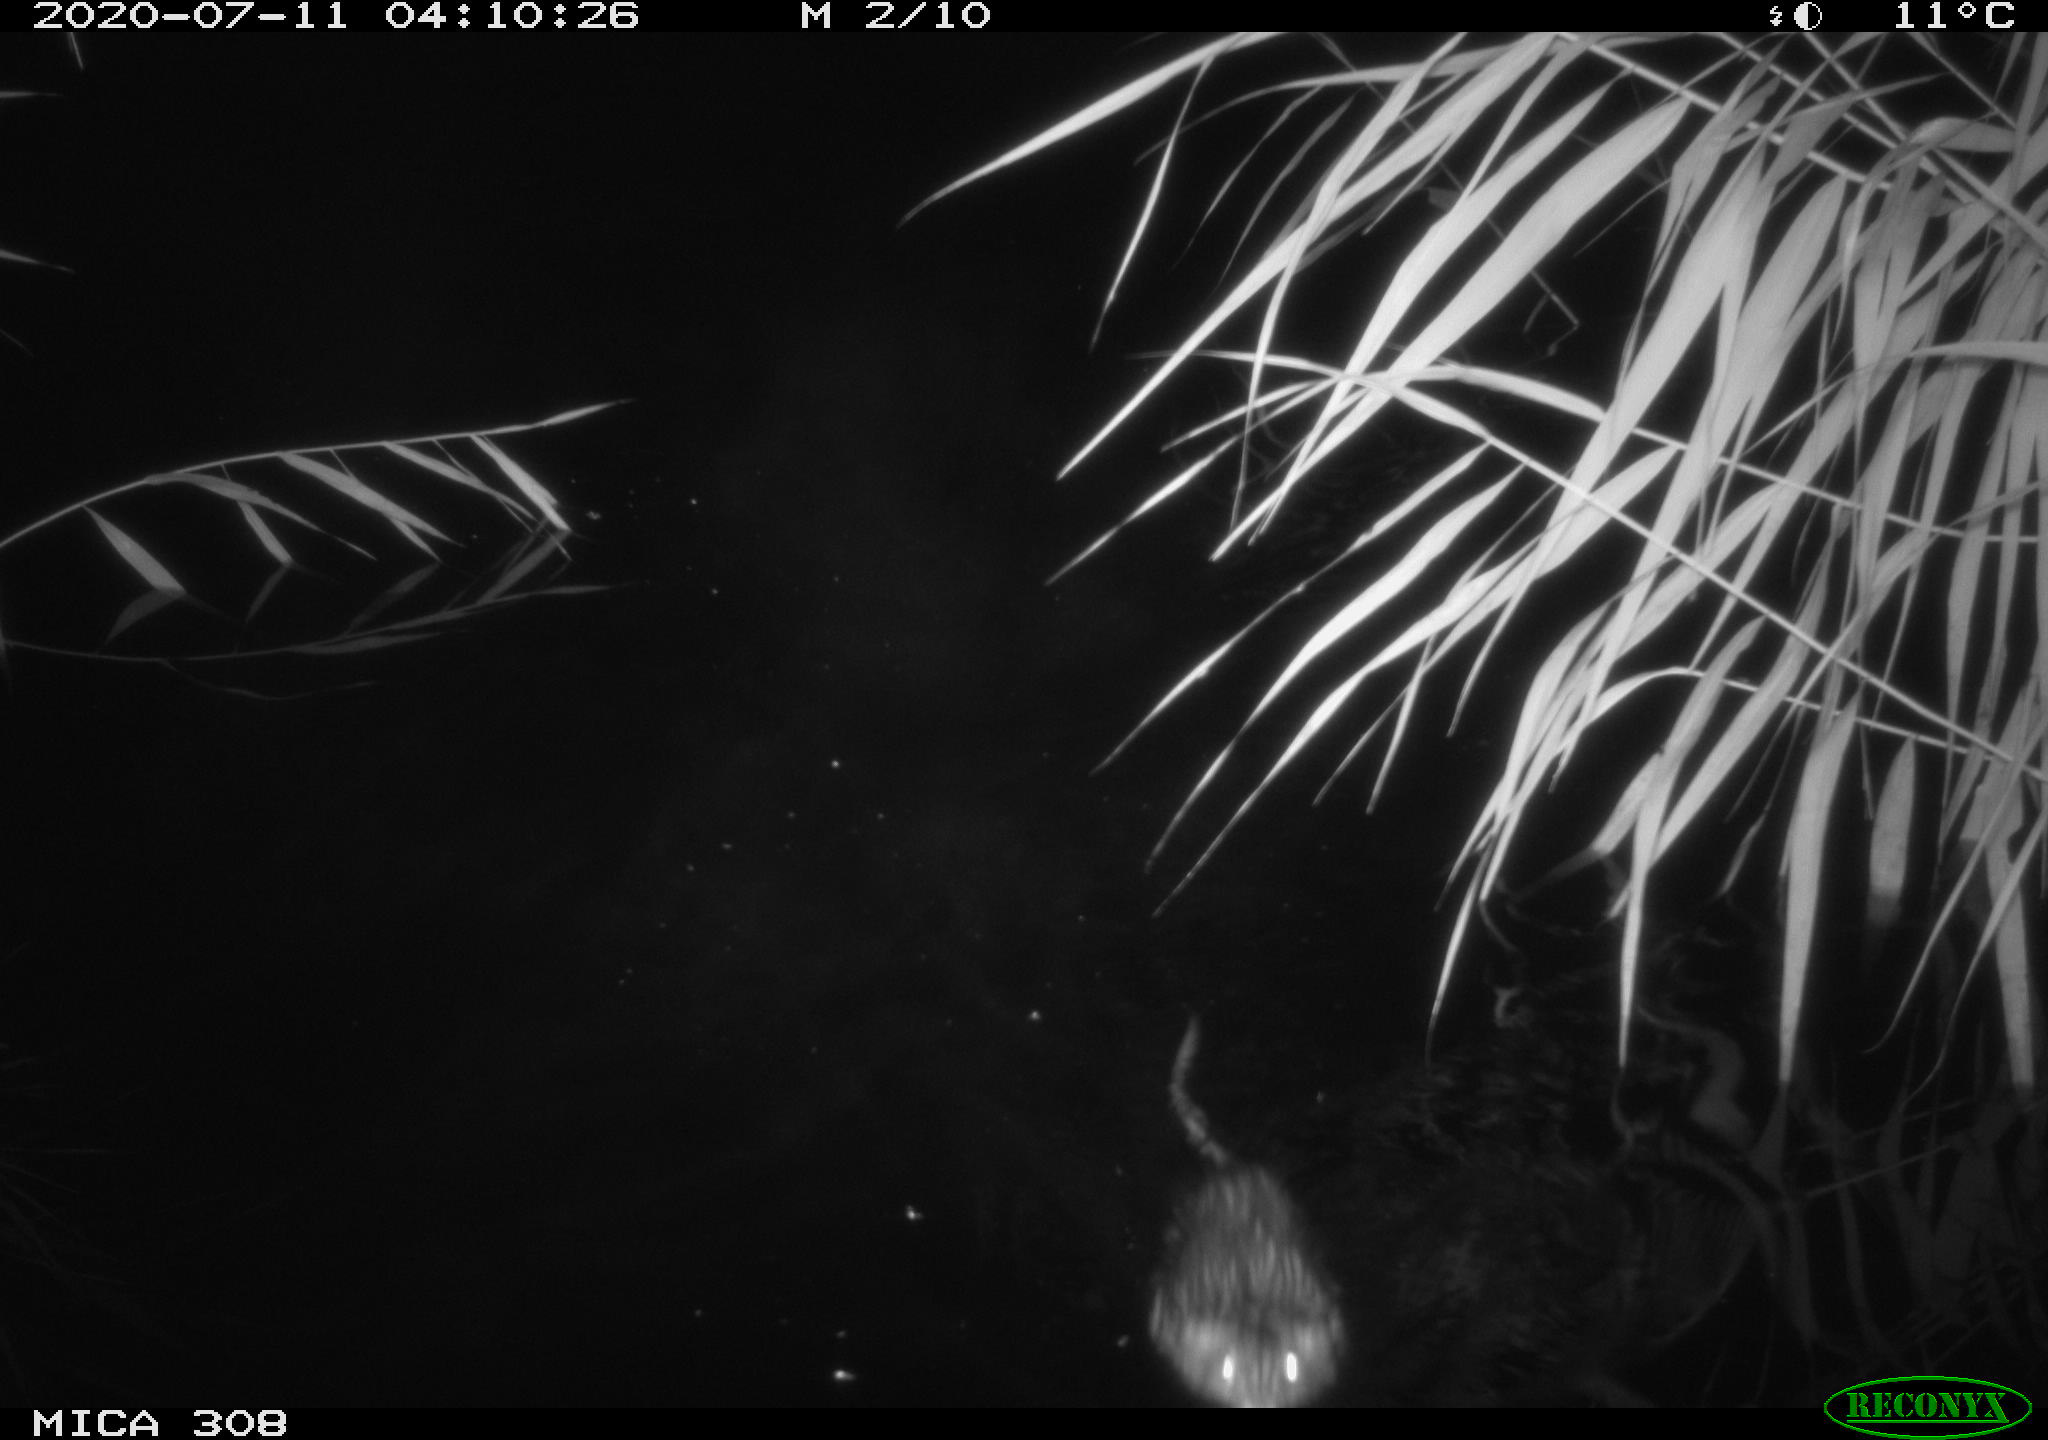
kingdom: Animalia
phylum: Chordata
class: Mammalia
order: Rodentia
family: Cricetidae
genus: Ondatra
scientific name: Ondatra zibethicus
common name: Muskrat
